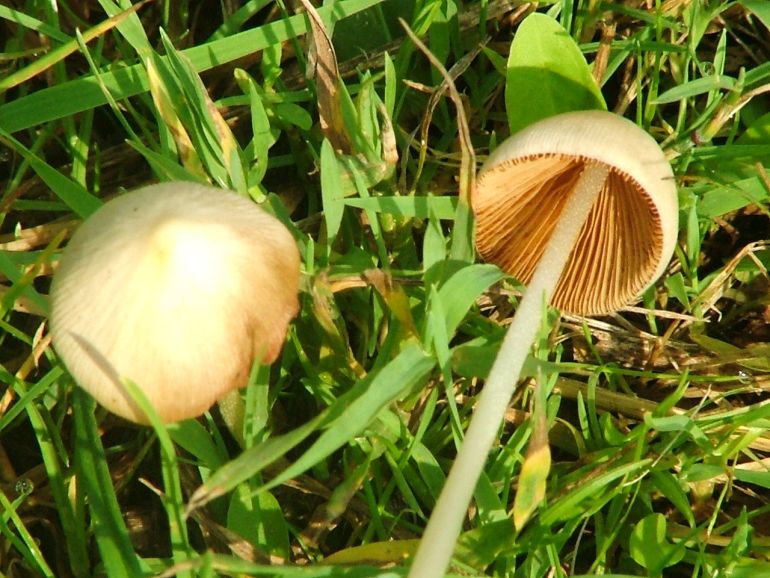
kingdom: Fungi
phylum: Basidiomycota
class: Agaricomycetes
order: Agaricales
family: Bolbitiaceae
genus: Conocybe
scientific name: Conocybe apala
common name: mælkehvid keglehat
